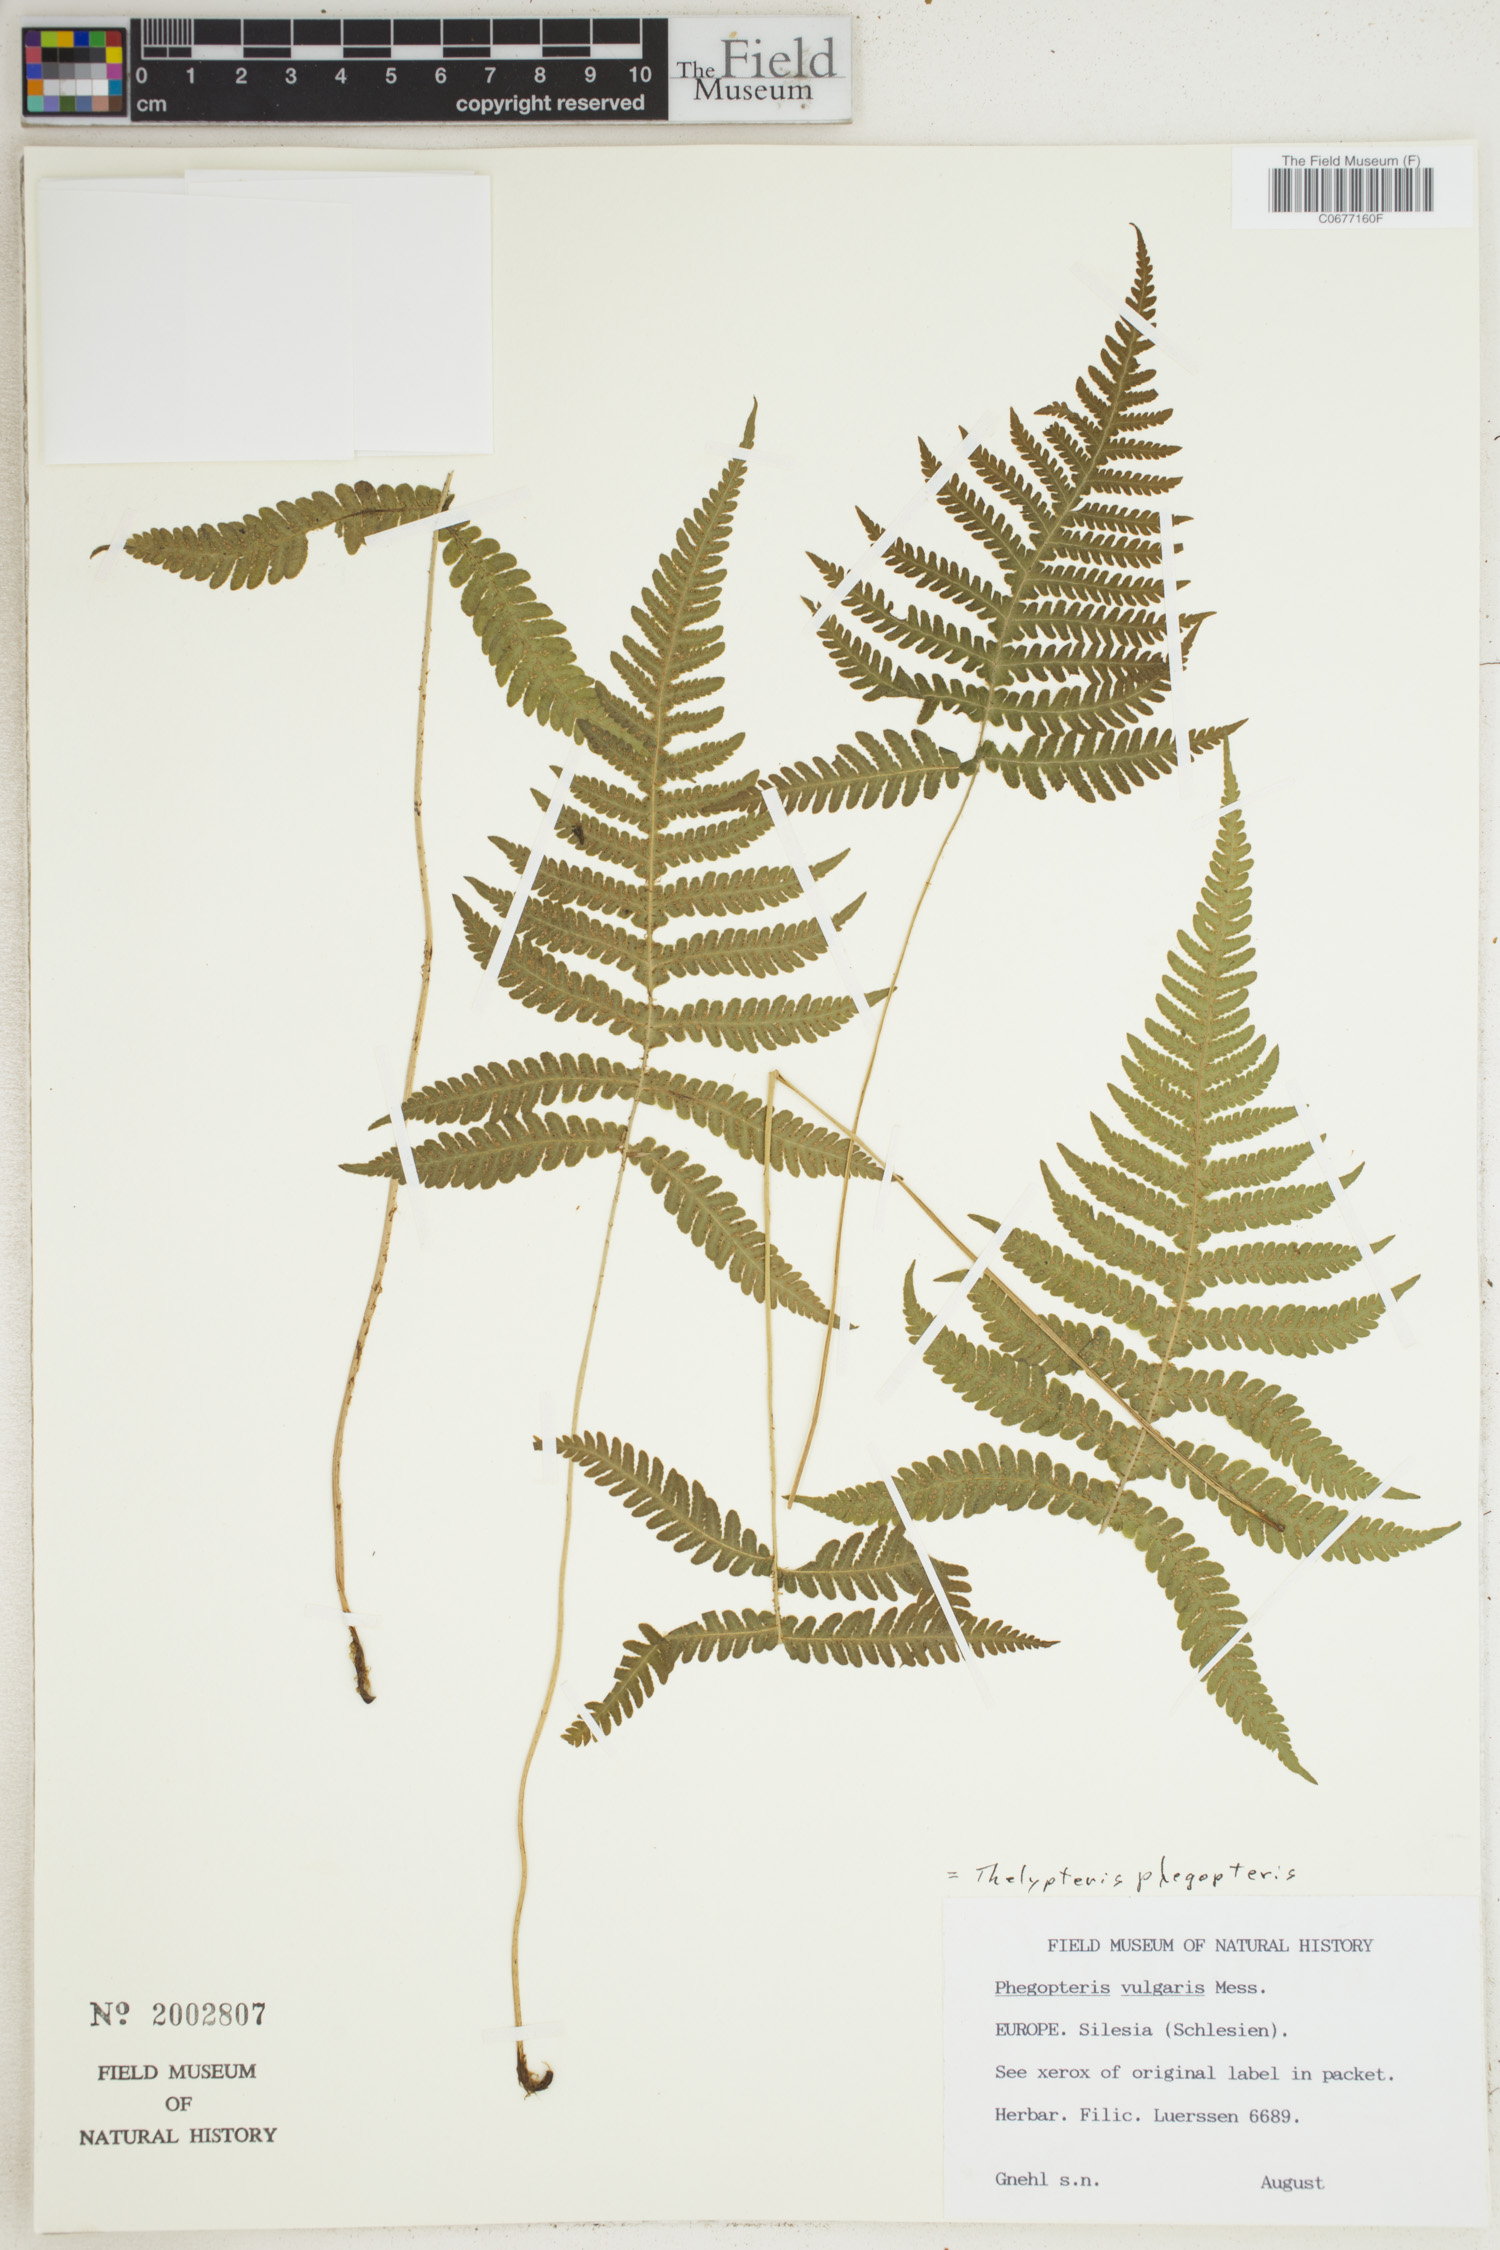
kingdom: Plantae
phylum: Tracheophyta
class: Polypodiopsida
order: Polypodiales
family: Thelypteridaceae
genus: Phegopteris
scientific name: Phegopteris connectilis
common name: Beech fern
